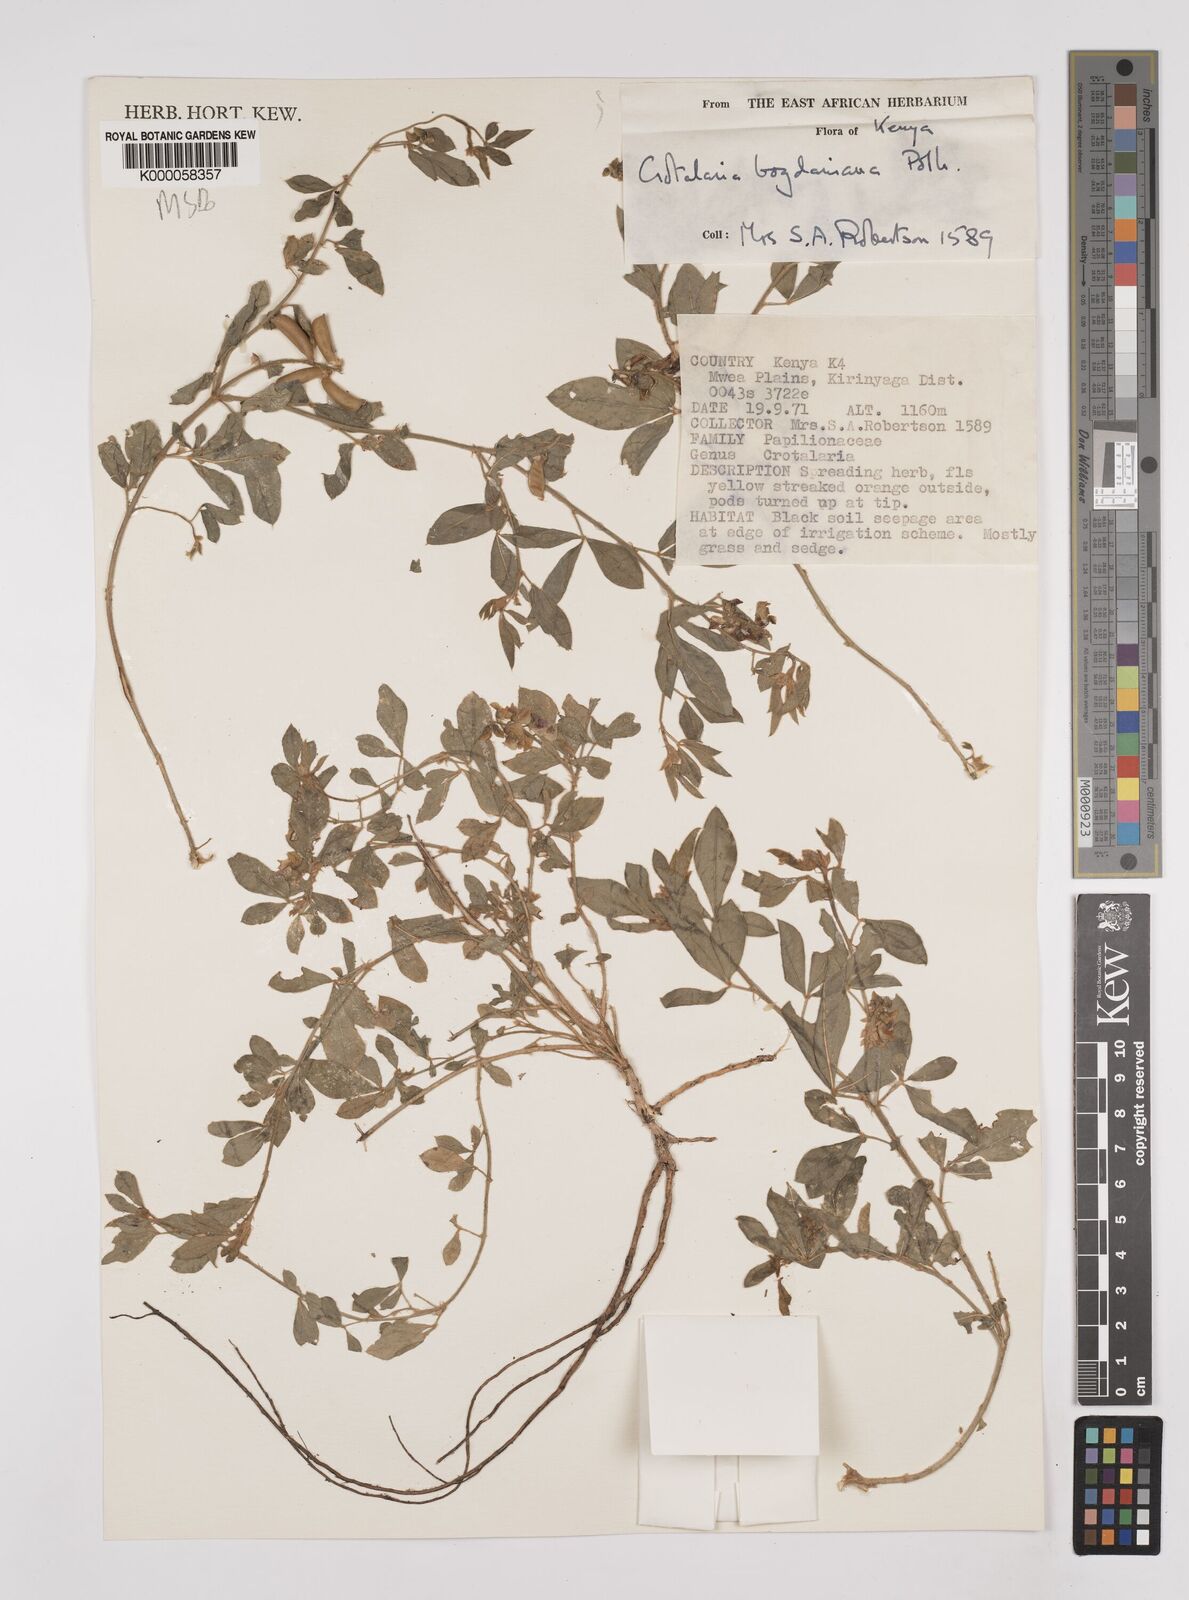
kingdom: Plantae
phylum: Tracheophyta
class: Magnoliopsida
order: Fabales
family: Fabaceae
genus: Crotalaria
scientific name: Crotalaria bogdaniana
